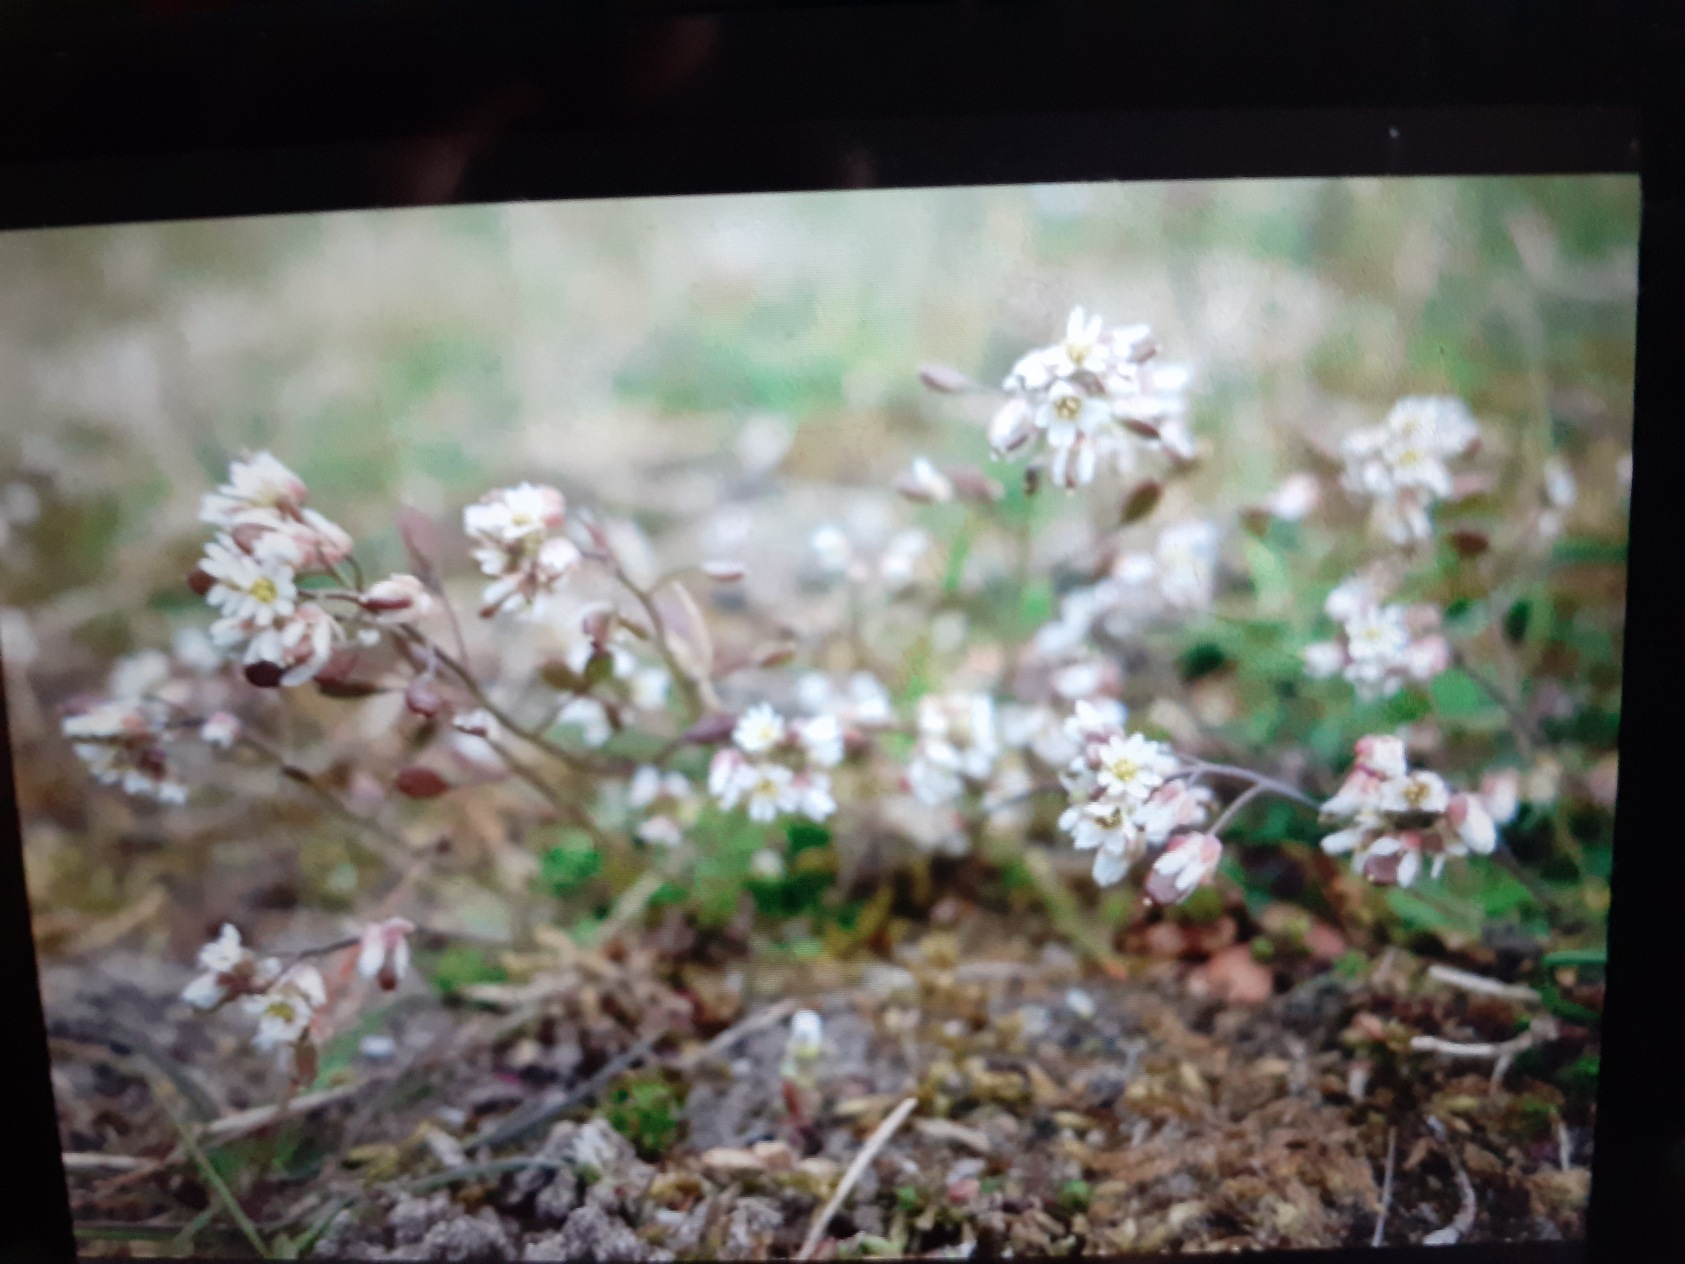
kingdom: Plantae
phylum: Tracheophyta
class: Magnoliopsida
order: Brassicales
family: Brassicaceae
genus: Draba
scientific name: Draba verna
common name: Vår-gæslingeblomst
